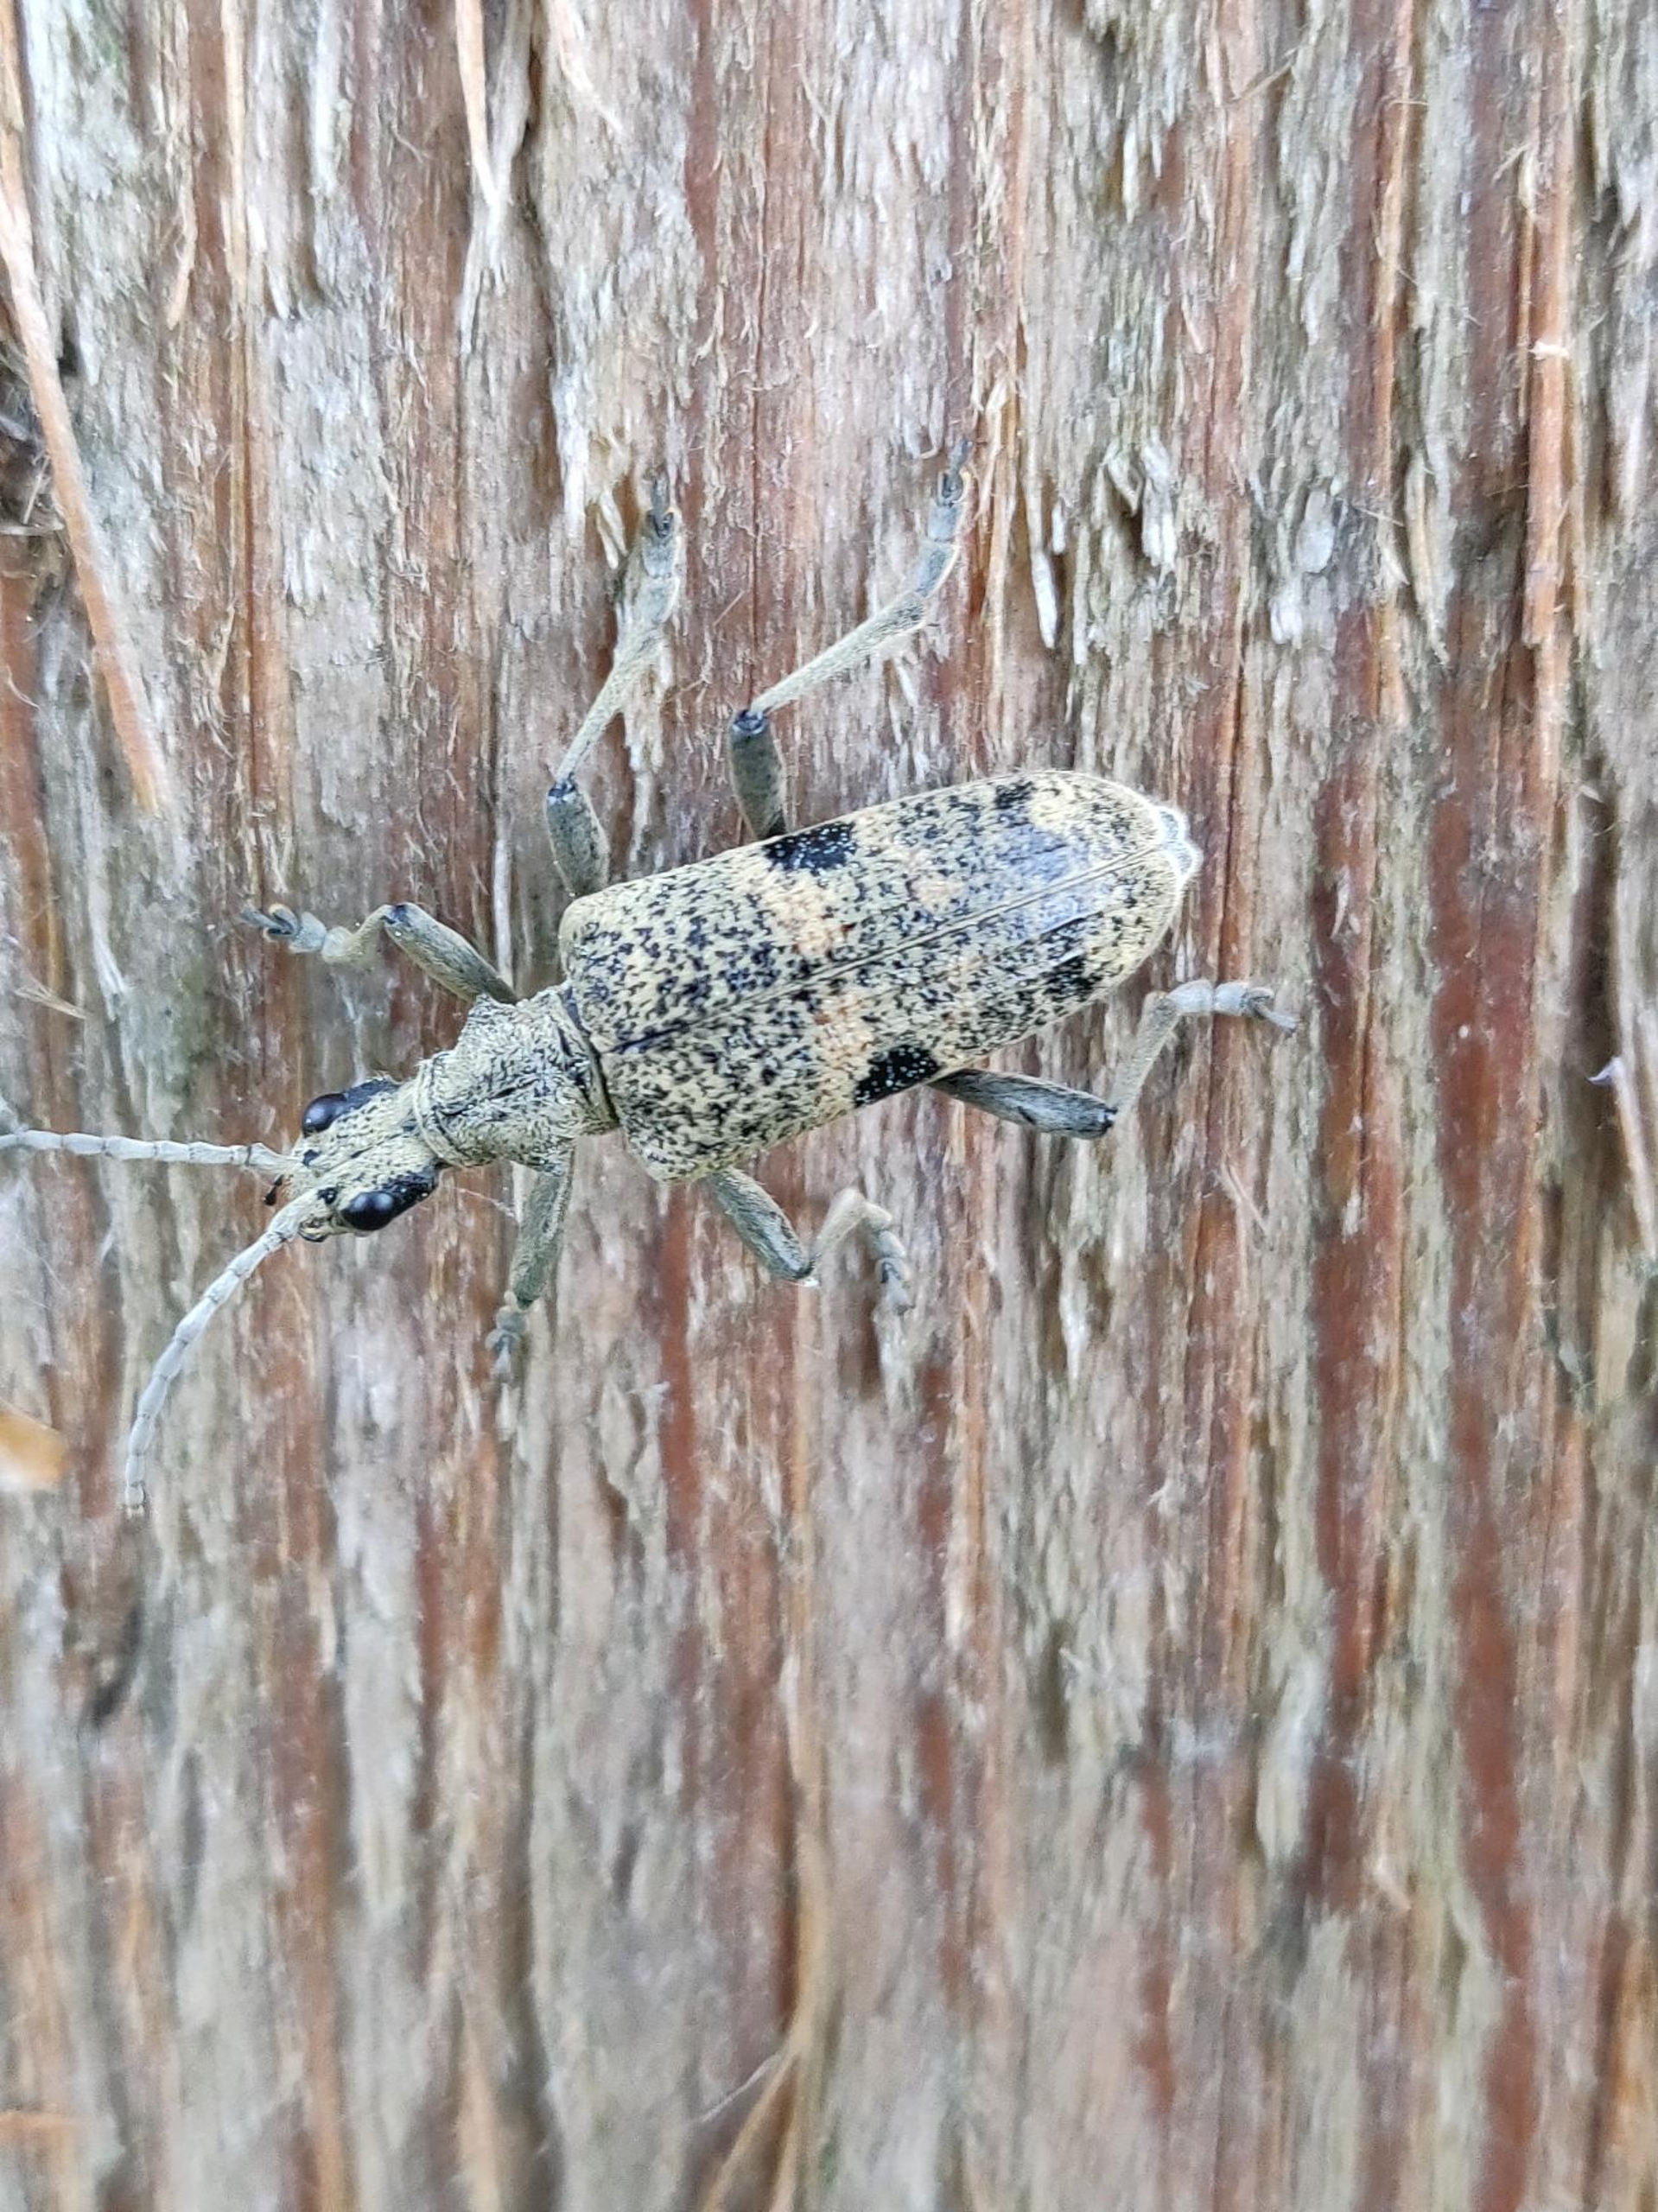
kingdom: Animalia
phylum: Arthropoda
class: Insecta
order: Coleoptera
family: Cerambycidae
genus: Rhagium
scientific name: Rhagium mordax
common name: Blankplettet tandbuk
